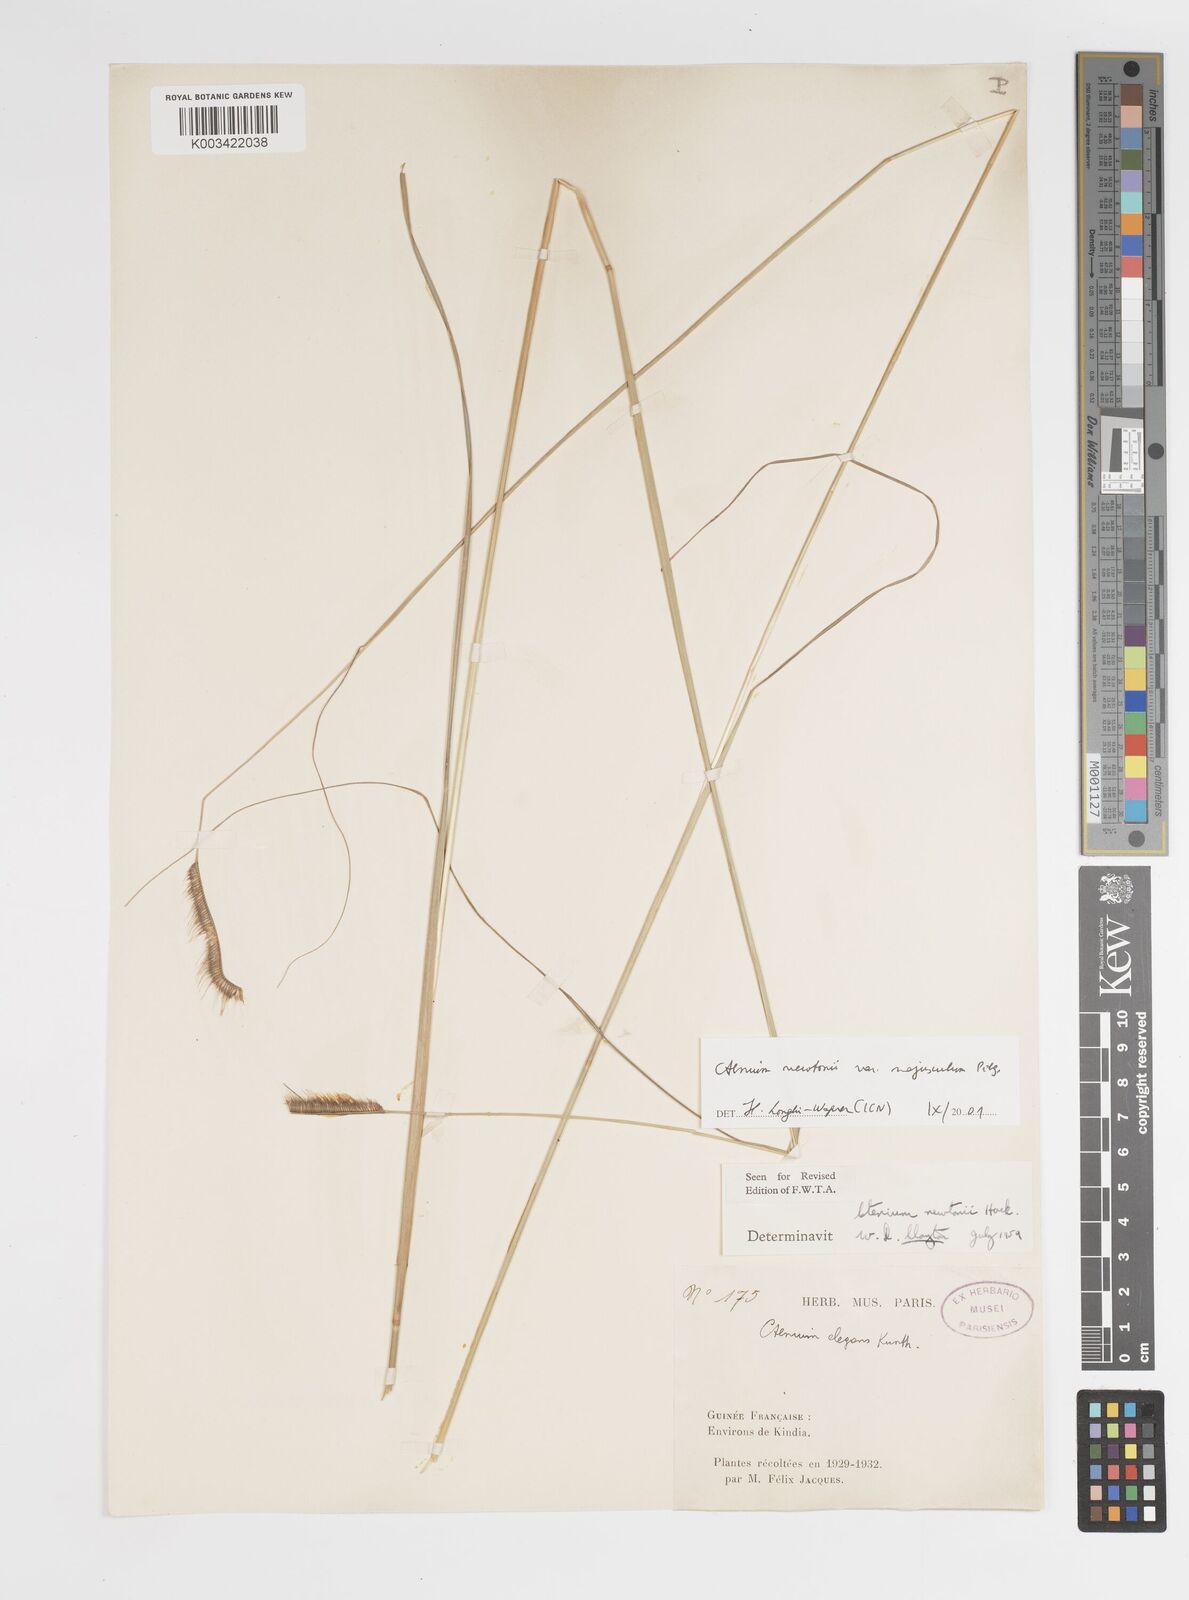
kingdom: Plantae
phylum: Tracheophyta
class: Liliopsida
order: Poales
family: Poaceae
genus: Ctenium
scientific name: Ctenium newtonii
